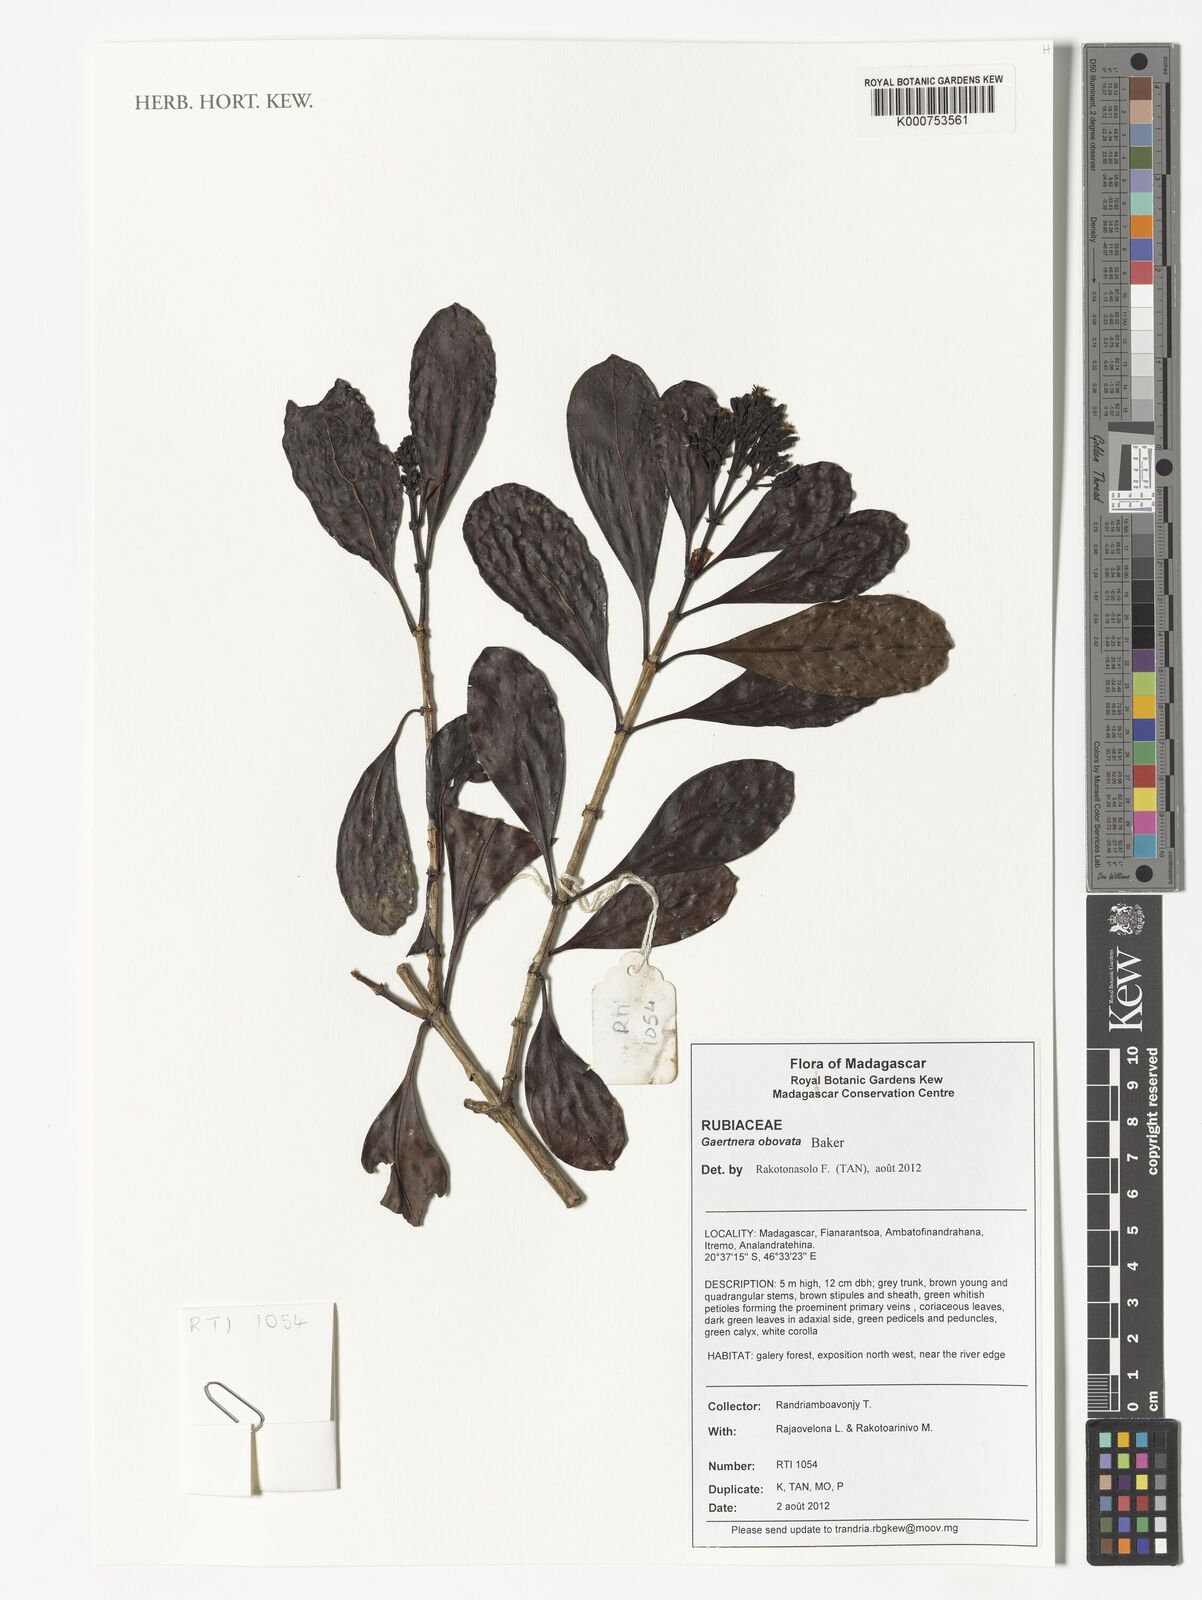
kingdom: Plantae
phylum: Tracheophyta
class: Magnoliopsida
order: Gentianales
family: Rubiaceae
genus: Gaertnera
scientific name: Gaertnera obovata
